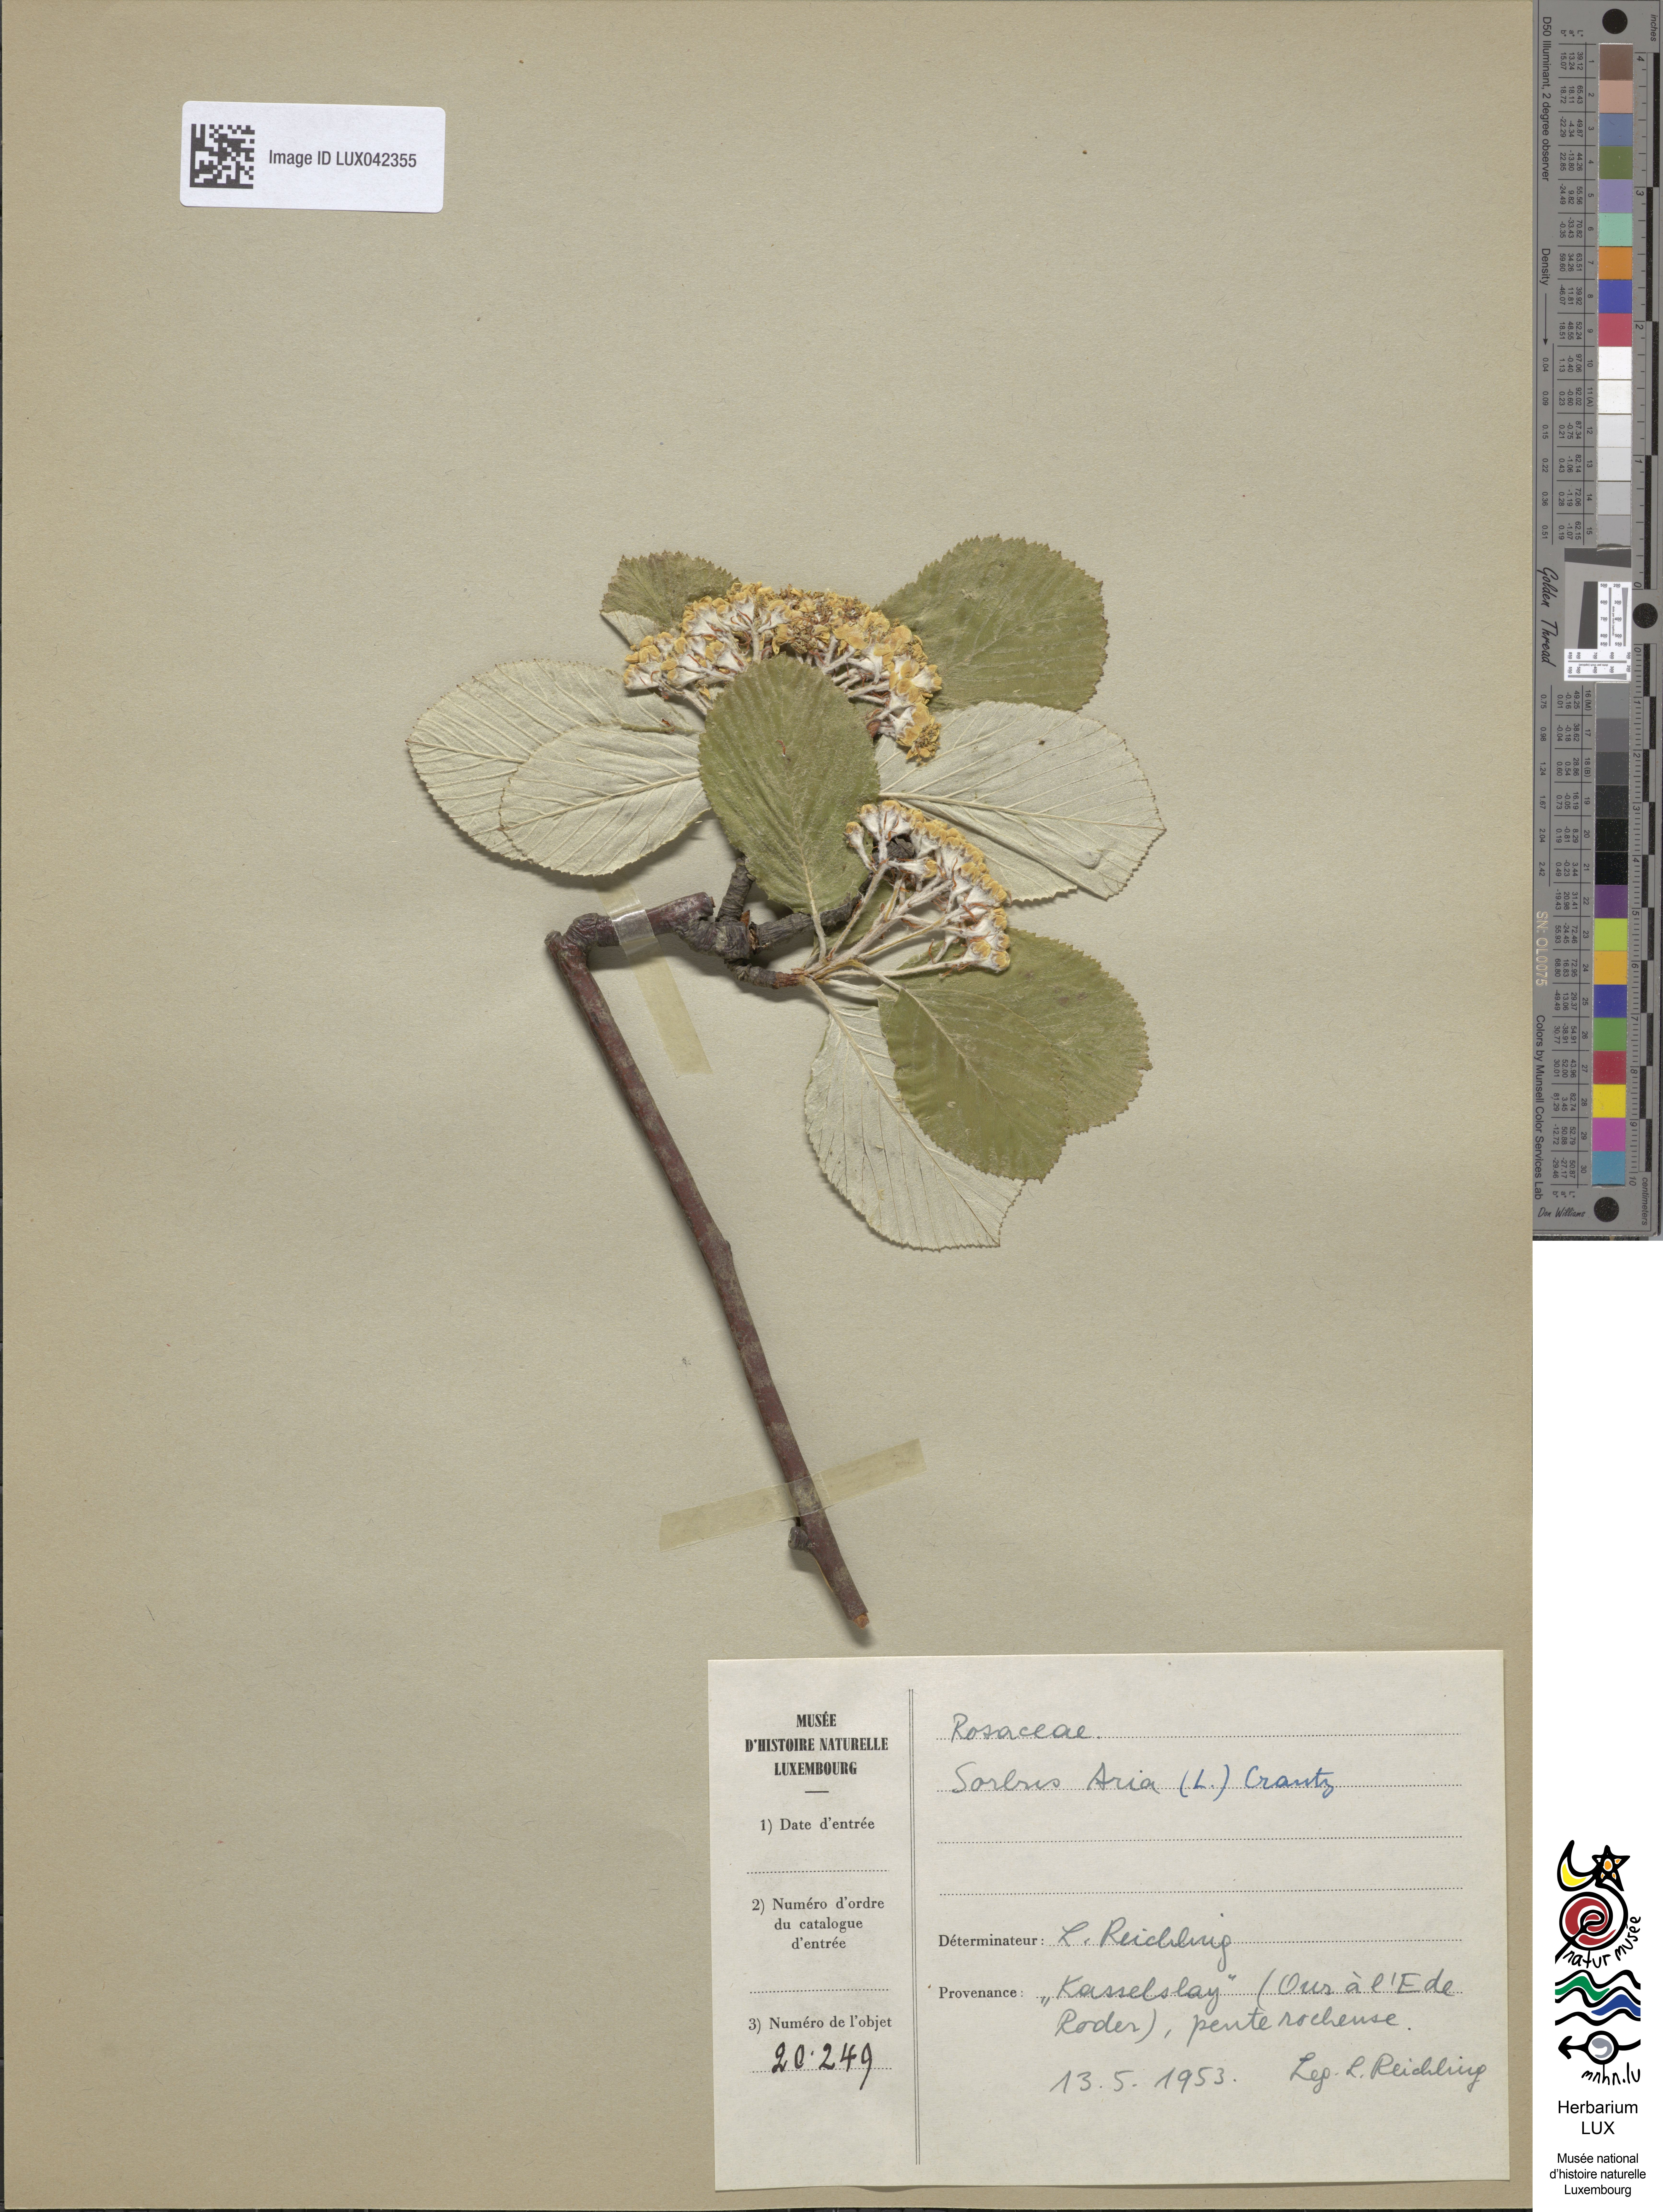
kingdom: Plantae
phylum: Tracheophyta
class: Magnoliopsida
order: Rosales
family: Rosaceae
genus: Aria
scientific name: Aria edulis
